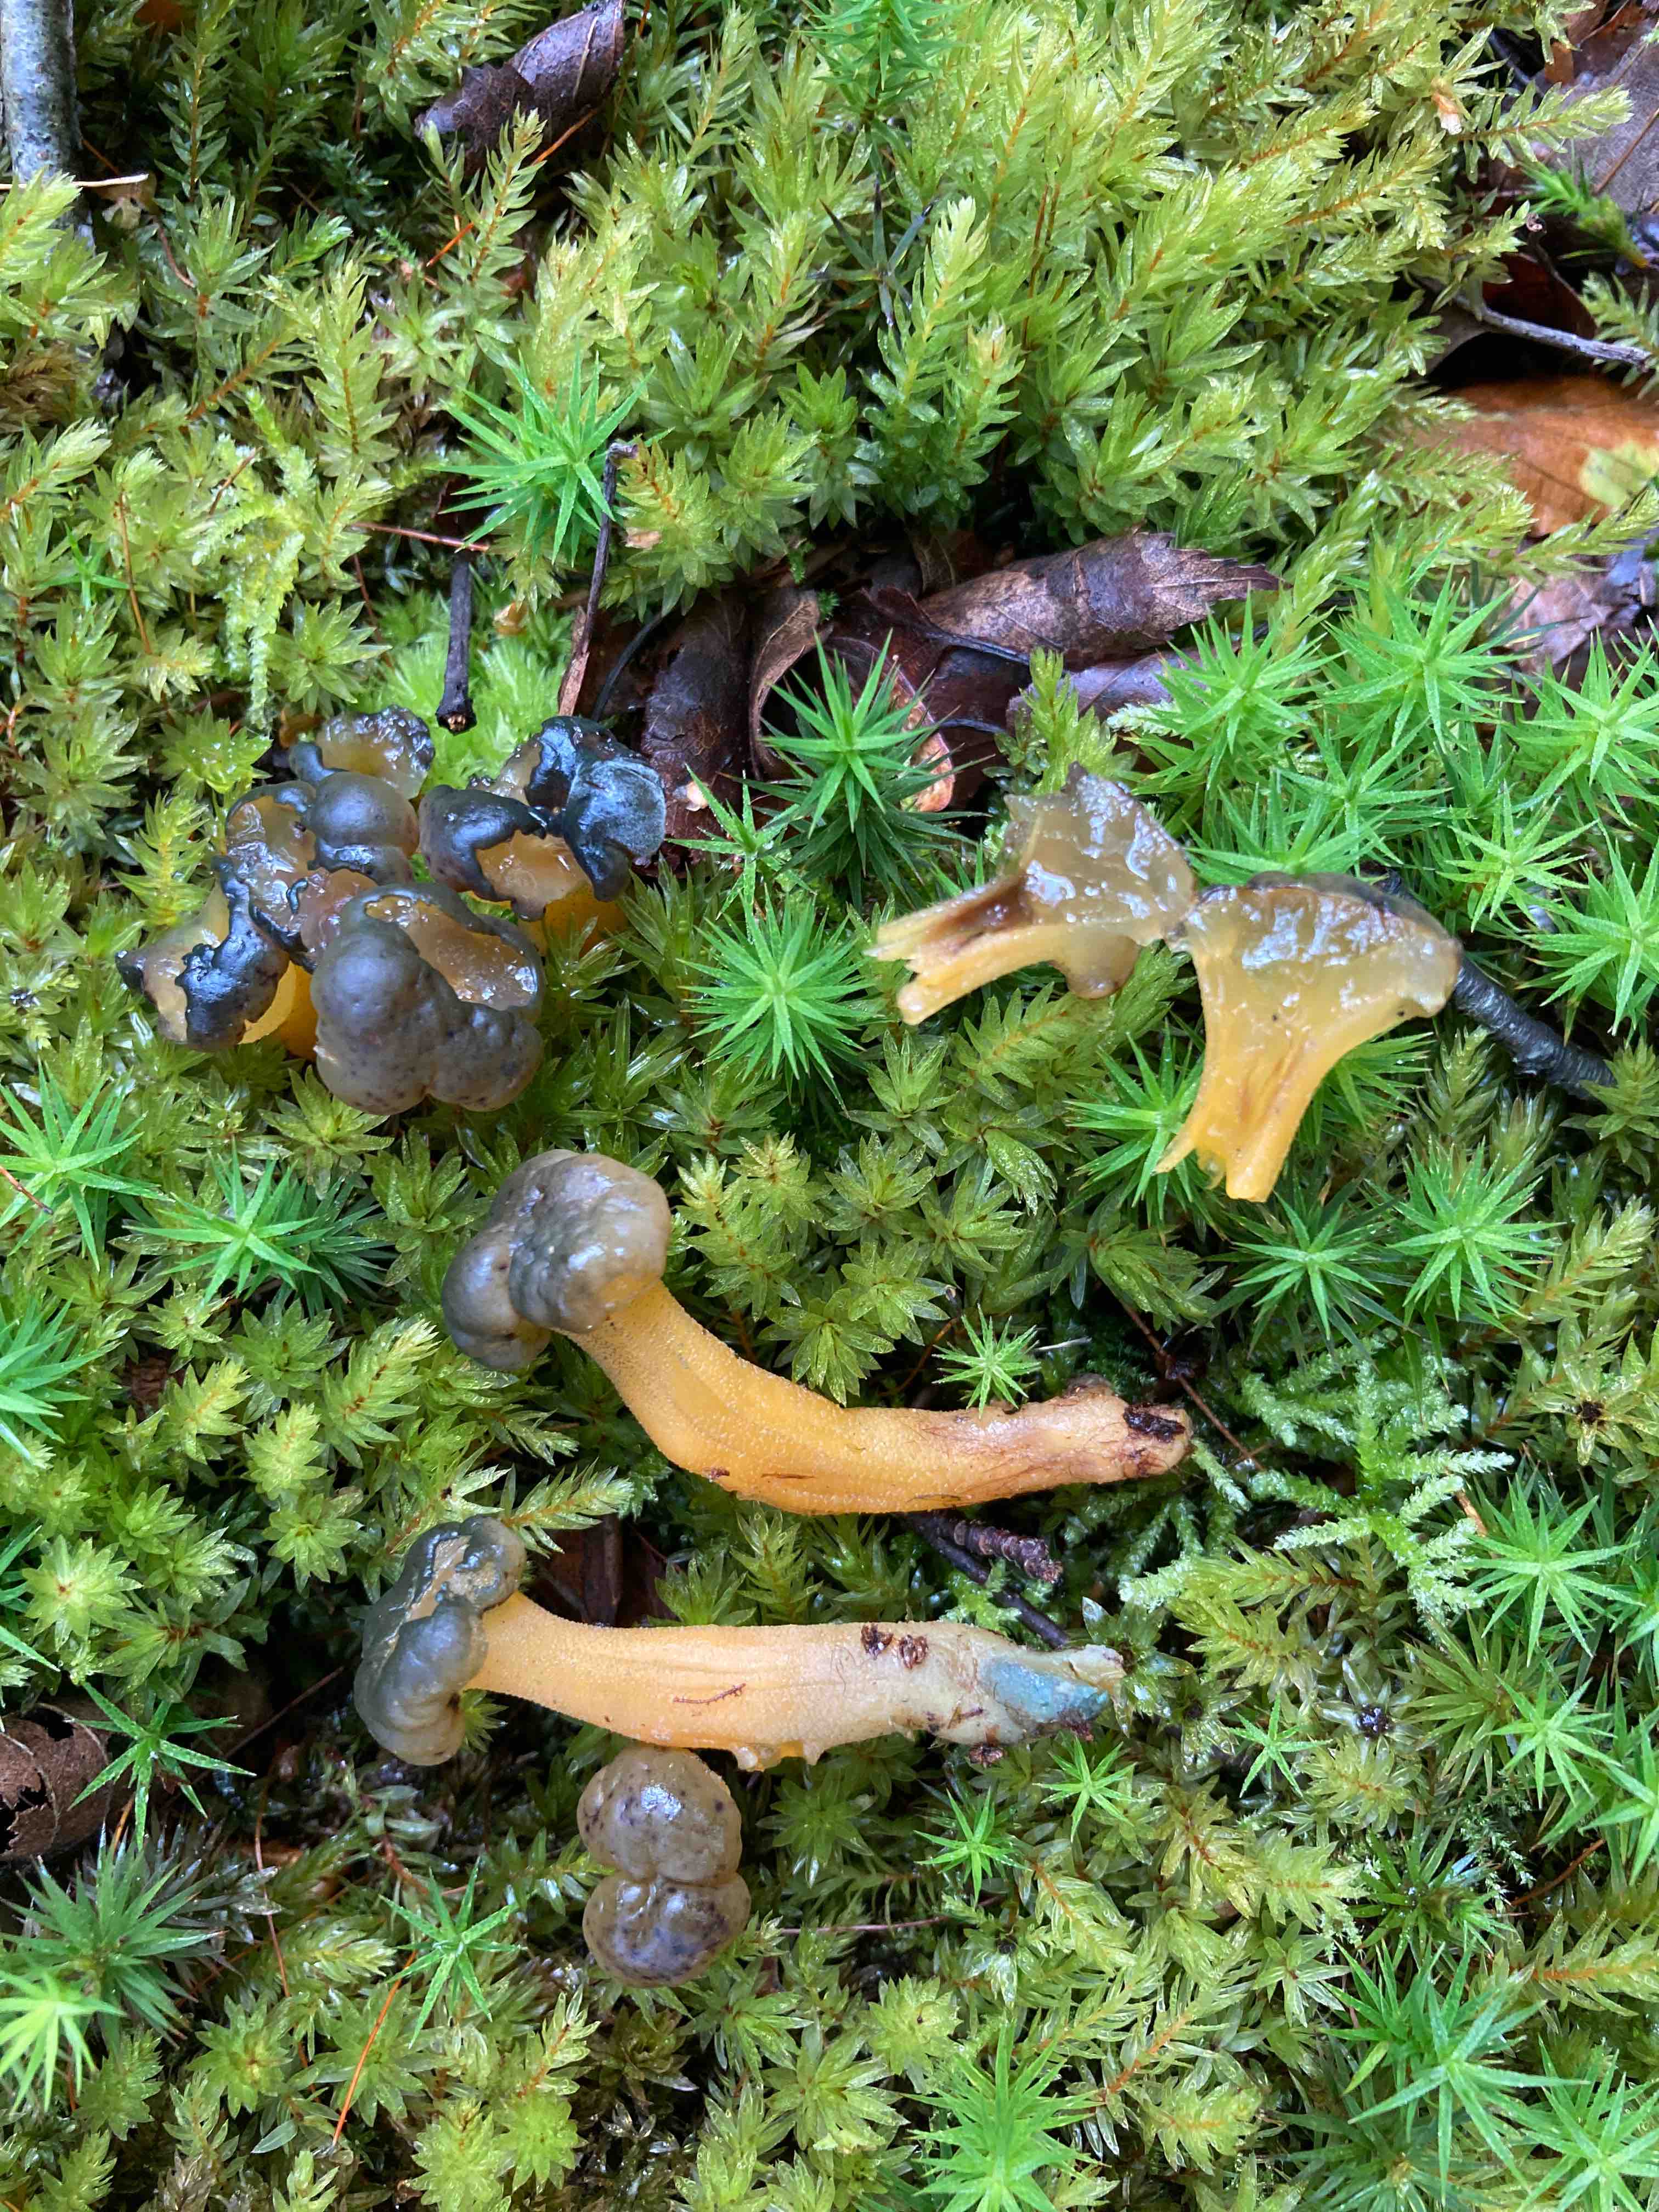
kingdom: Fungi
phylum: Ascomycota
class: Leotiomycetes
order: Leotiales
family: Leotiaceae
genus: Leotia
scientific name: Leotia lubrica
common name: ravsvamp
